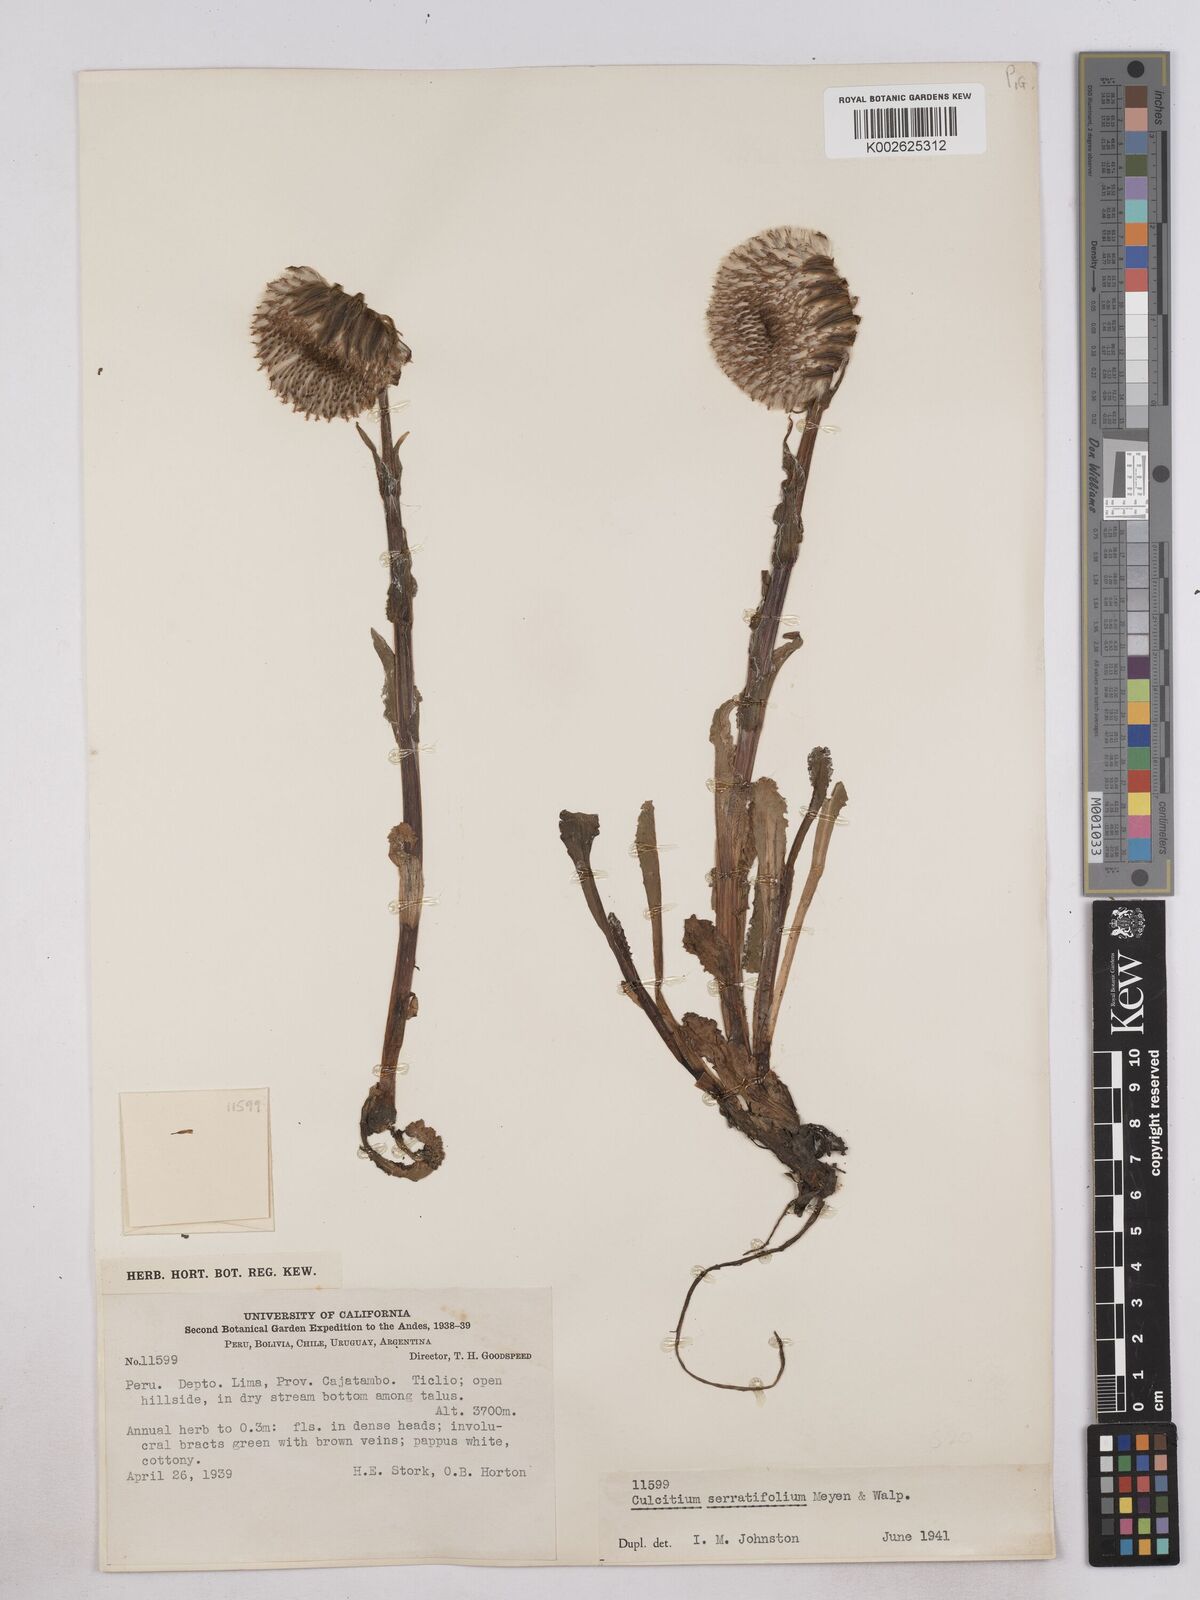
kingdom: Plantae
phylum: Tracheophyta
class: Magnoliopsida
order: Asterales
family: Asteraceae
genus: Senecio
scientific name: Senecio serratifolius
